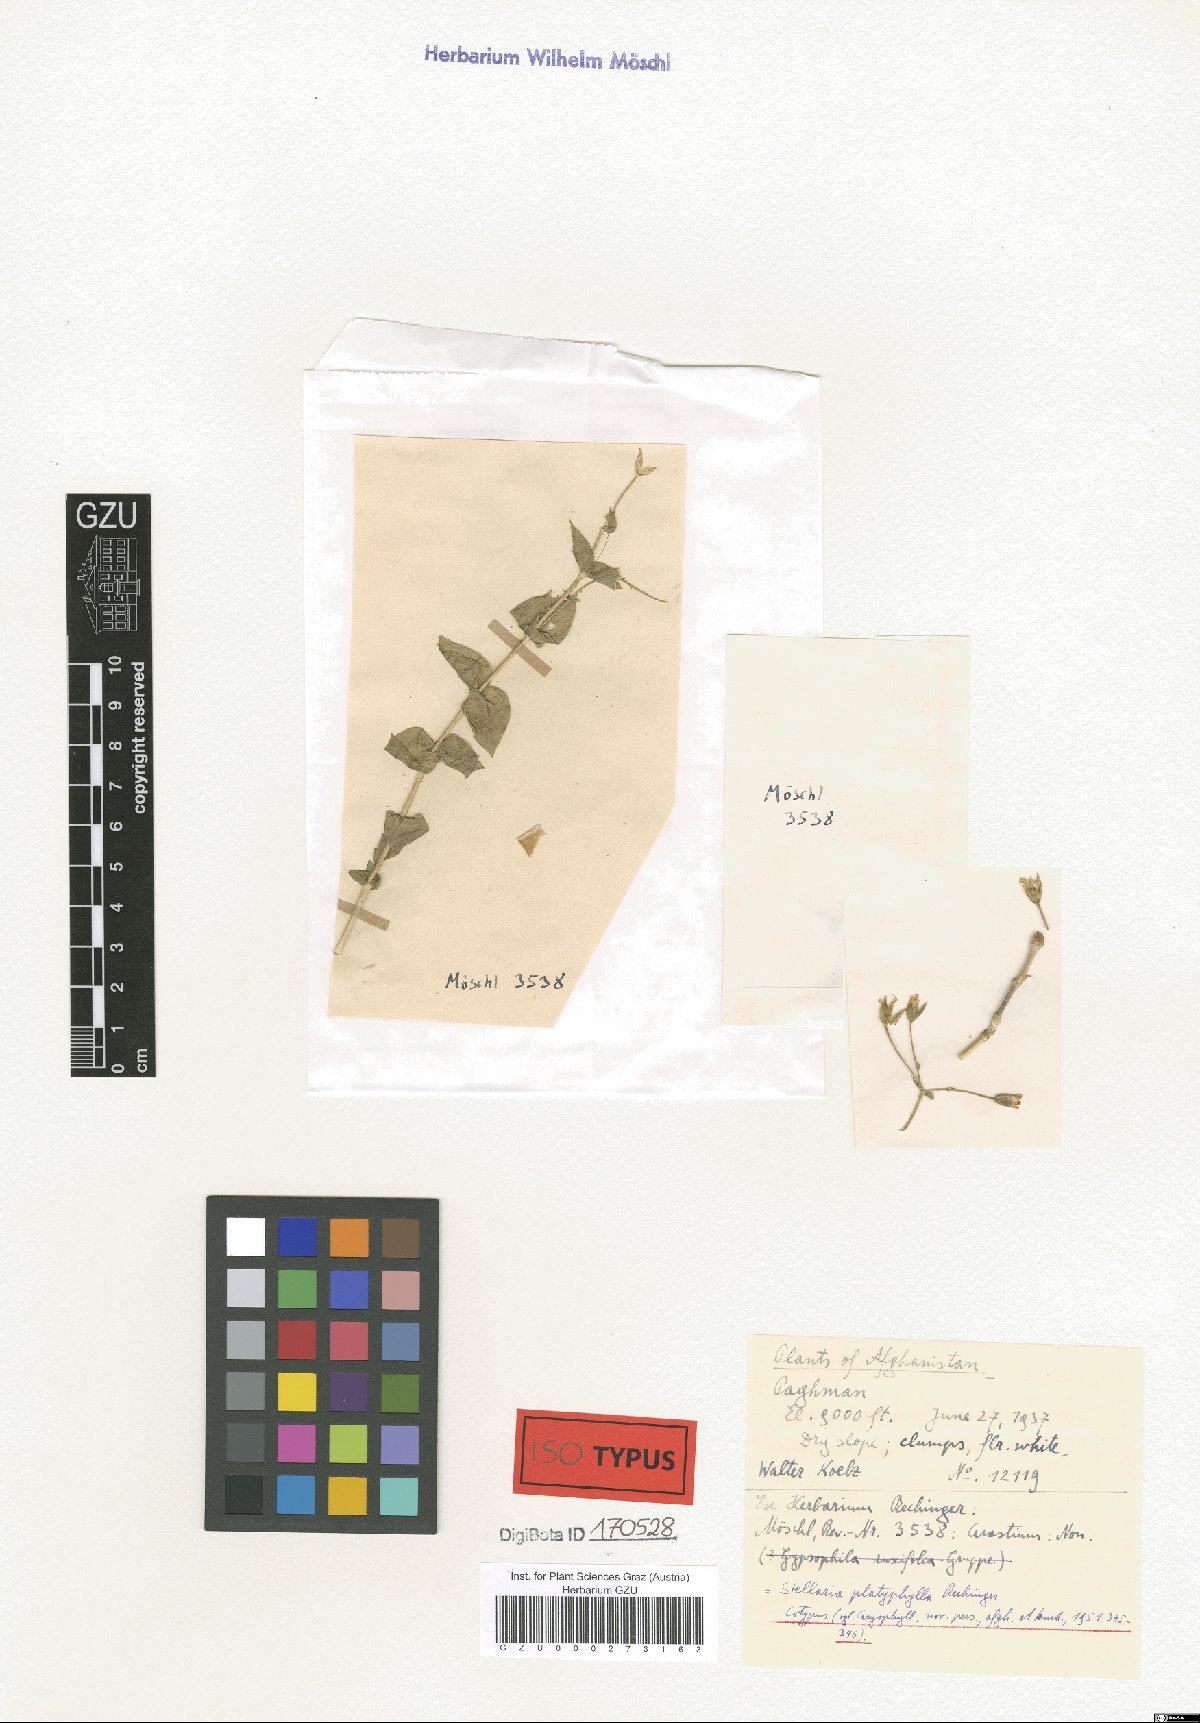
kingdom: Plantae
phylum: Tracheophyta
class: Magnoliopsida
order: Caryophyllales
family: Caryophyllaceae
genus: Mesostemma
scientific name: Mesostemma platyphyllum
